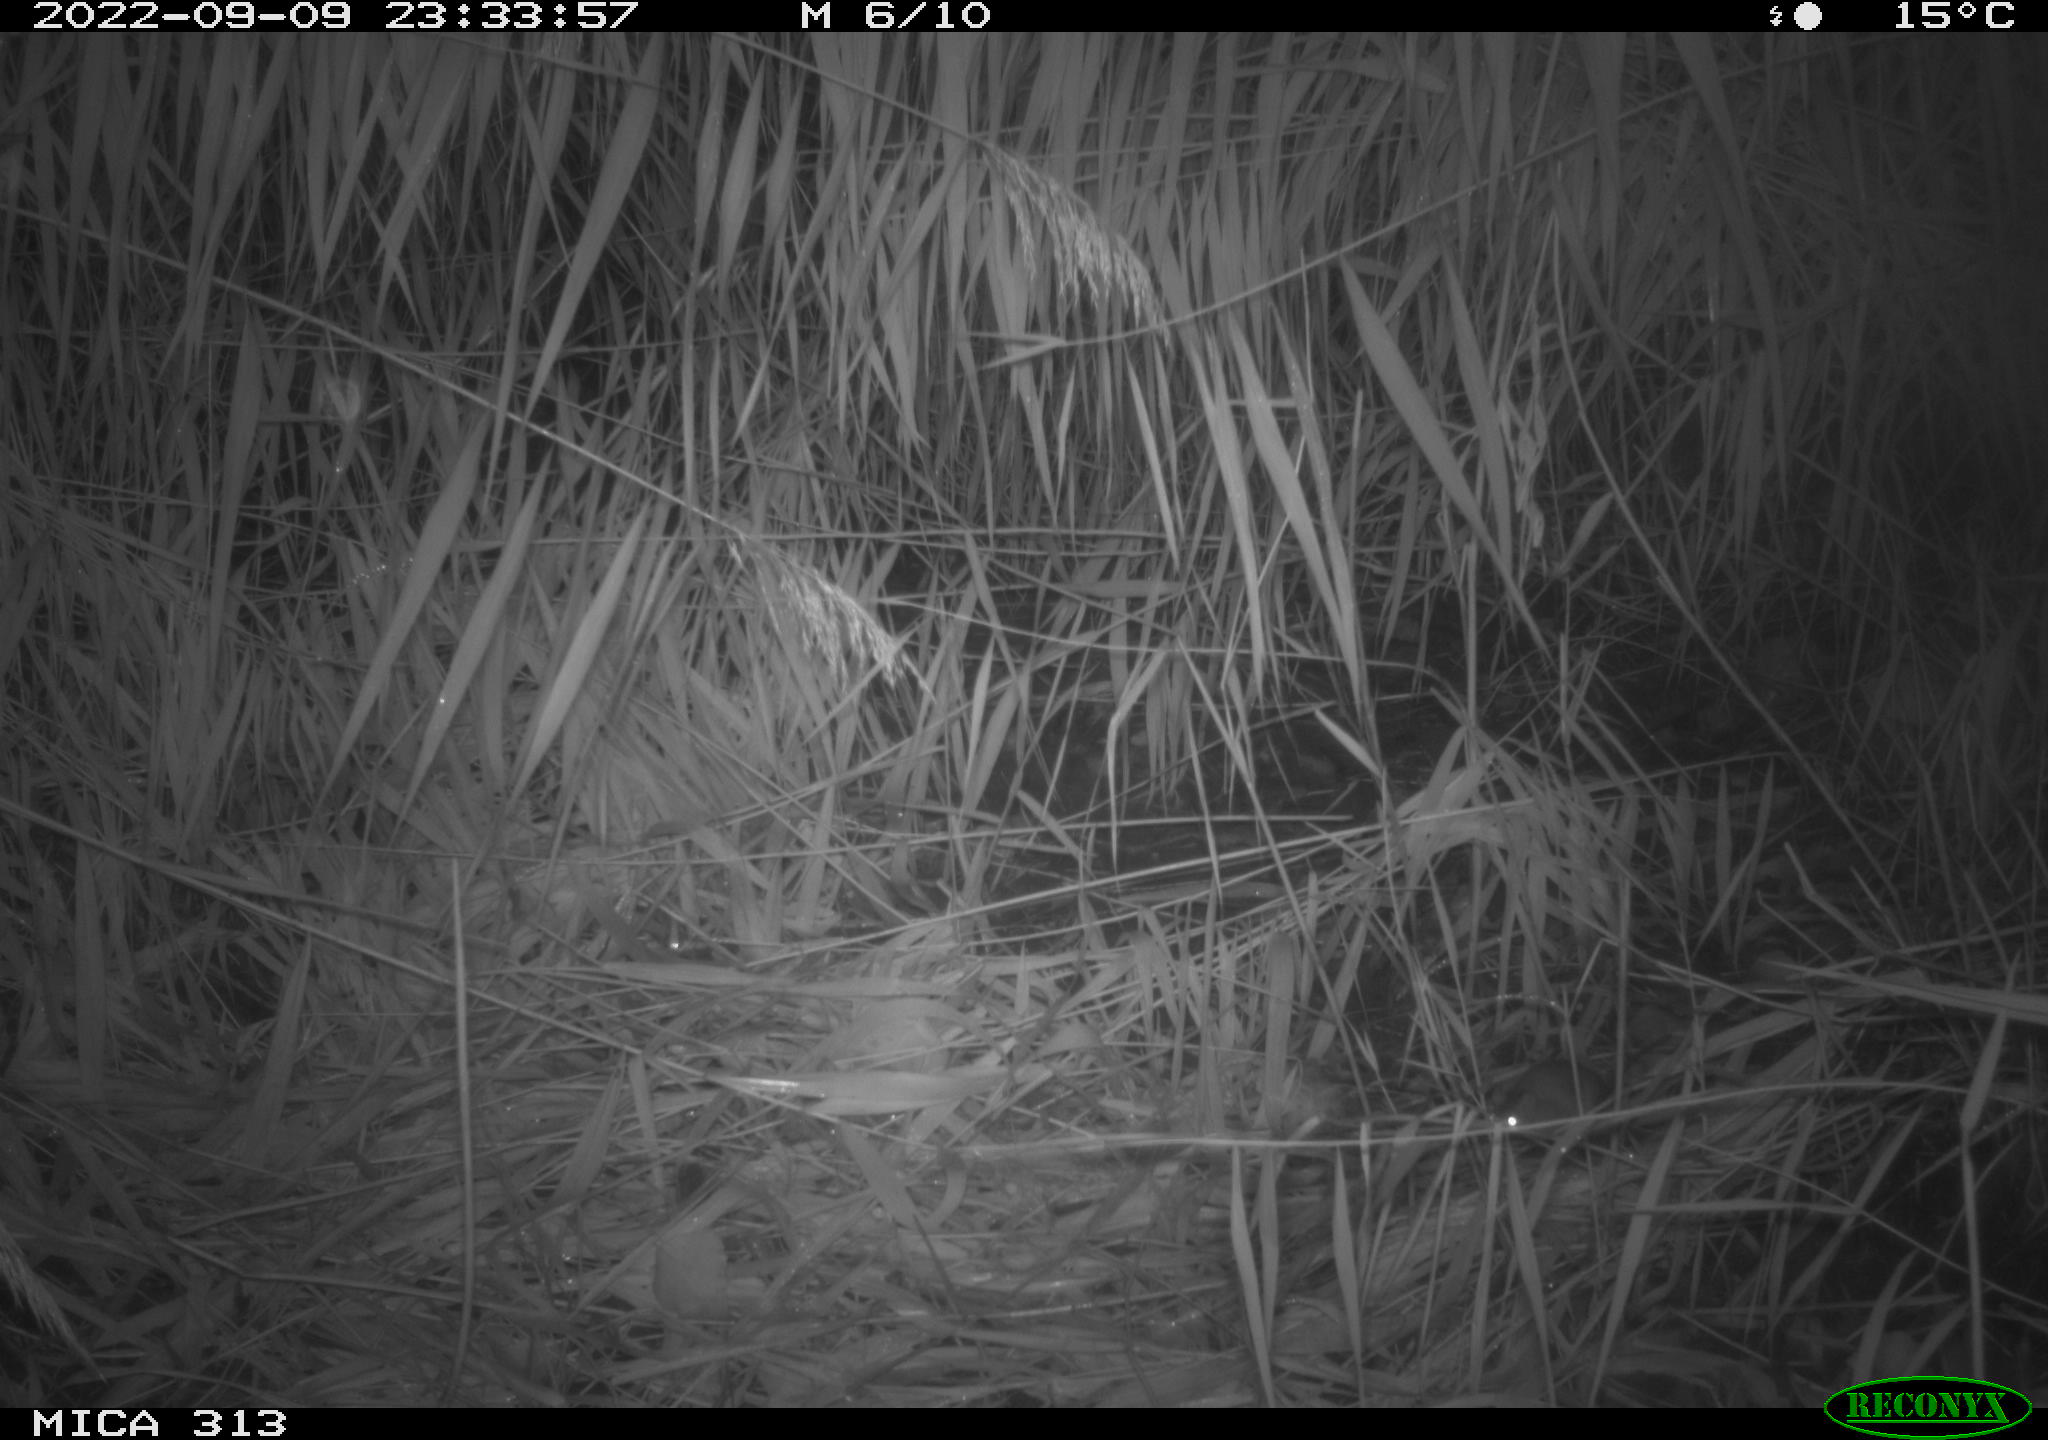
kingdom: Animalia
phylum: Chordata
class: Mammalia
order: Rodentia
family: Muridae
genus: Apodemus
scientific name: Apodemus sylvaticus
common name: Wood mouse
